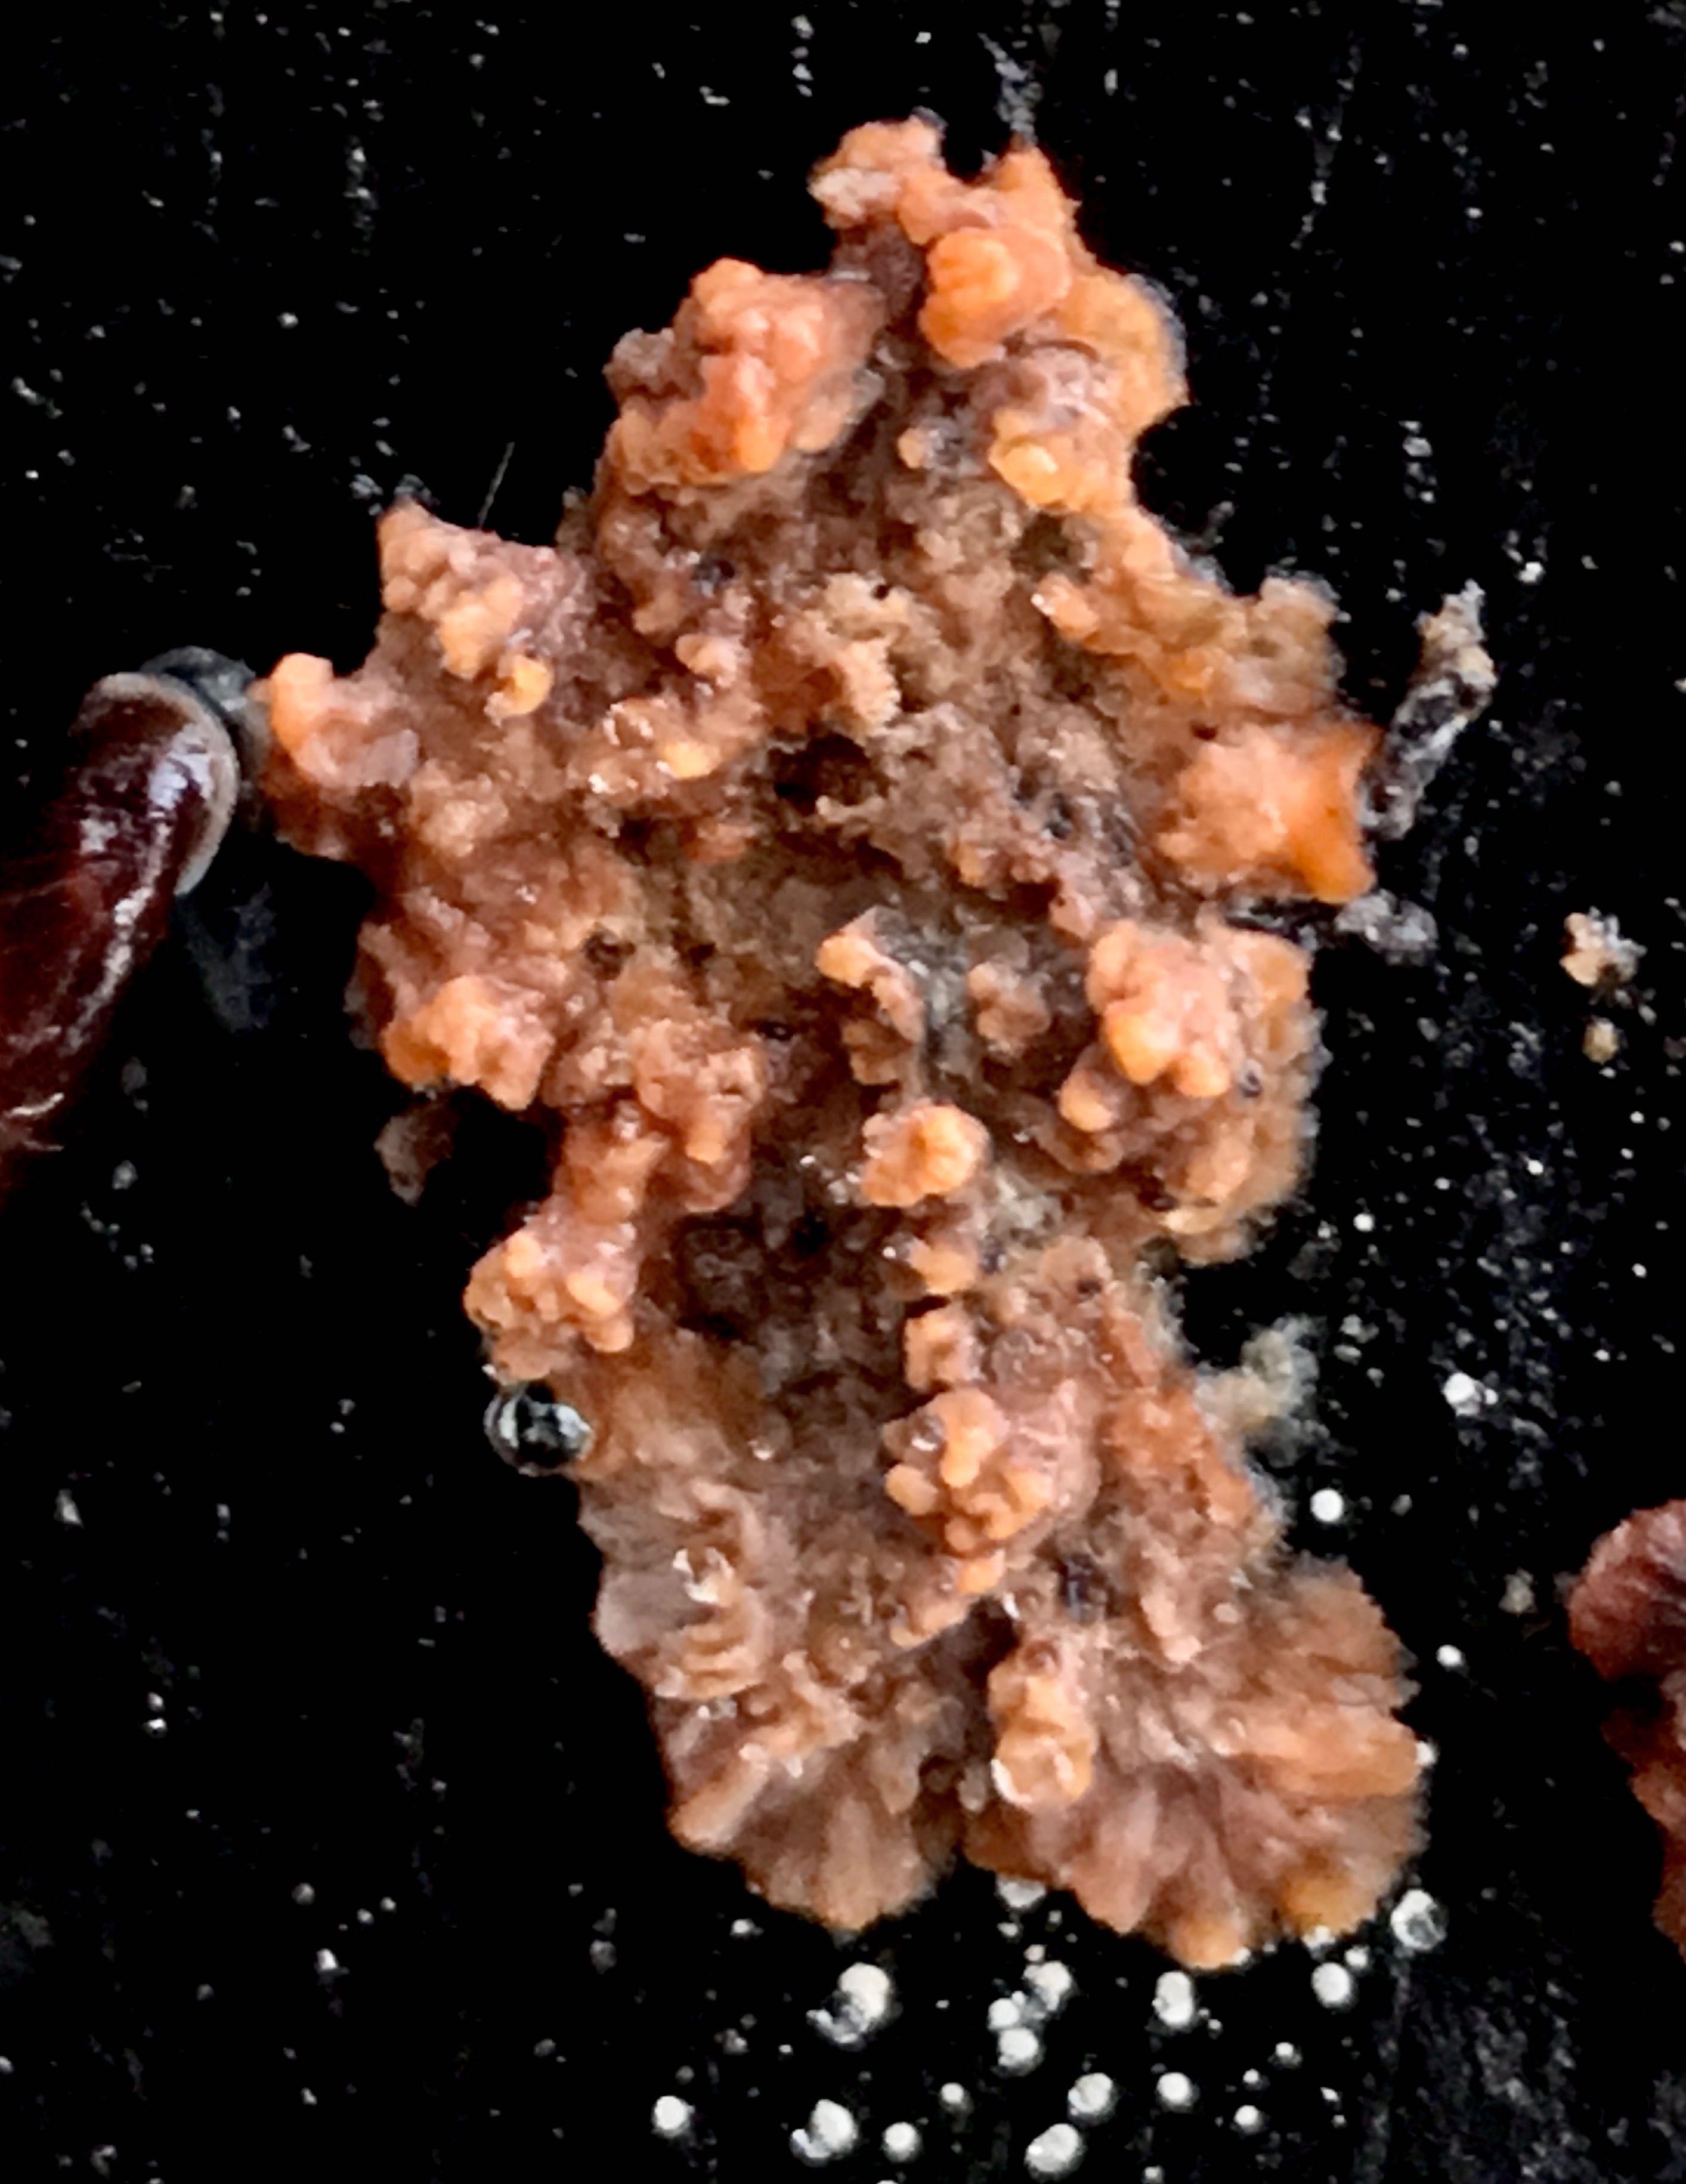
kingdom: Fungi
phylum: Basidiomycota
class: Agaricomycetes
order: Polyporales
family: Meruliaceae
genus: Phlebia
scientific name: Phlebia radiata
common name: stråle-åresvamp
